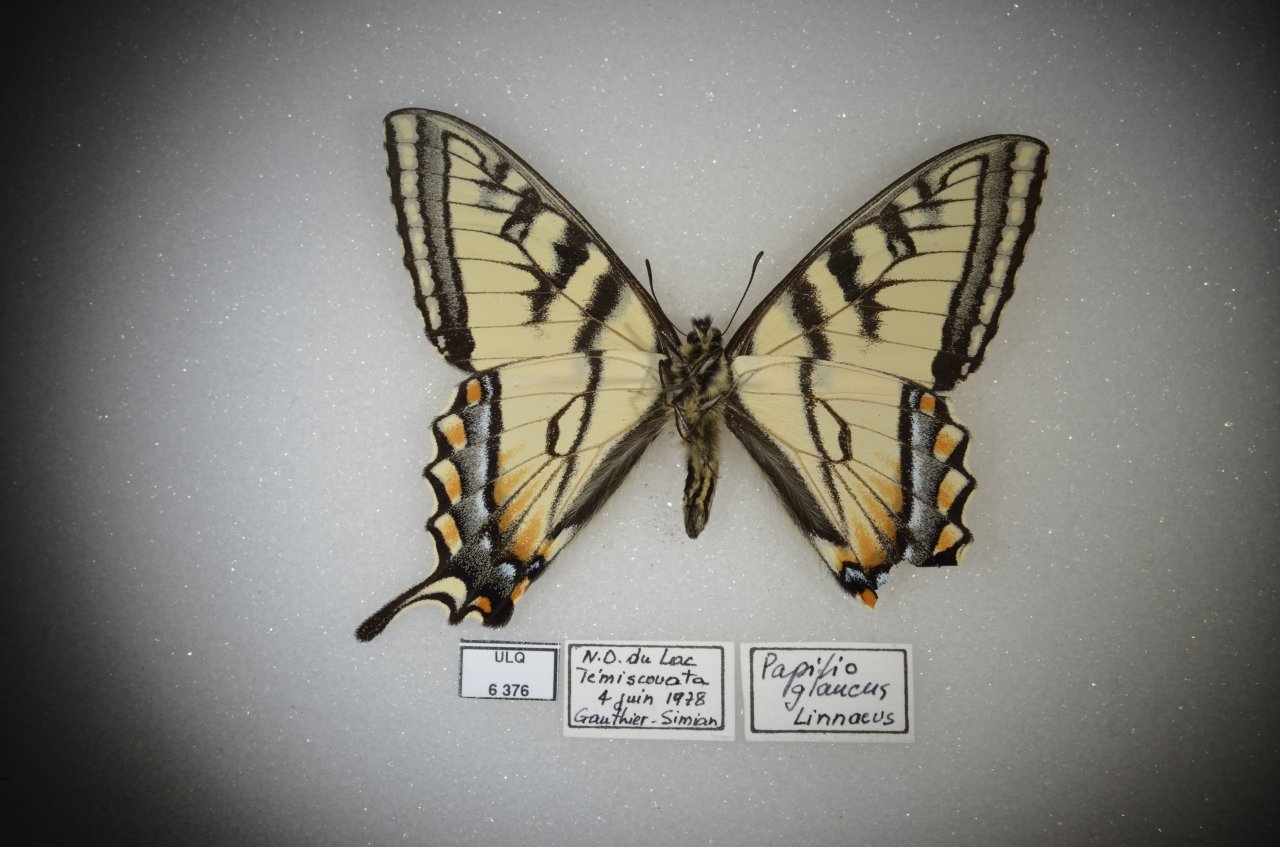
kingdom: Animalia
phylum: Arthropoda
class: Insecta
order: Lepidoptera
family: Papilionidae
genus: Pterourus
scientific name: Pterourus canadensis
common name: Canadian Tiger Swallowtail
